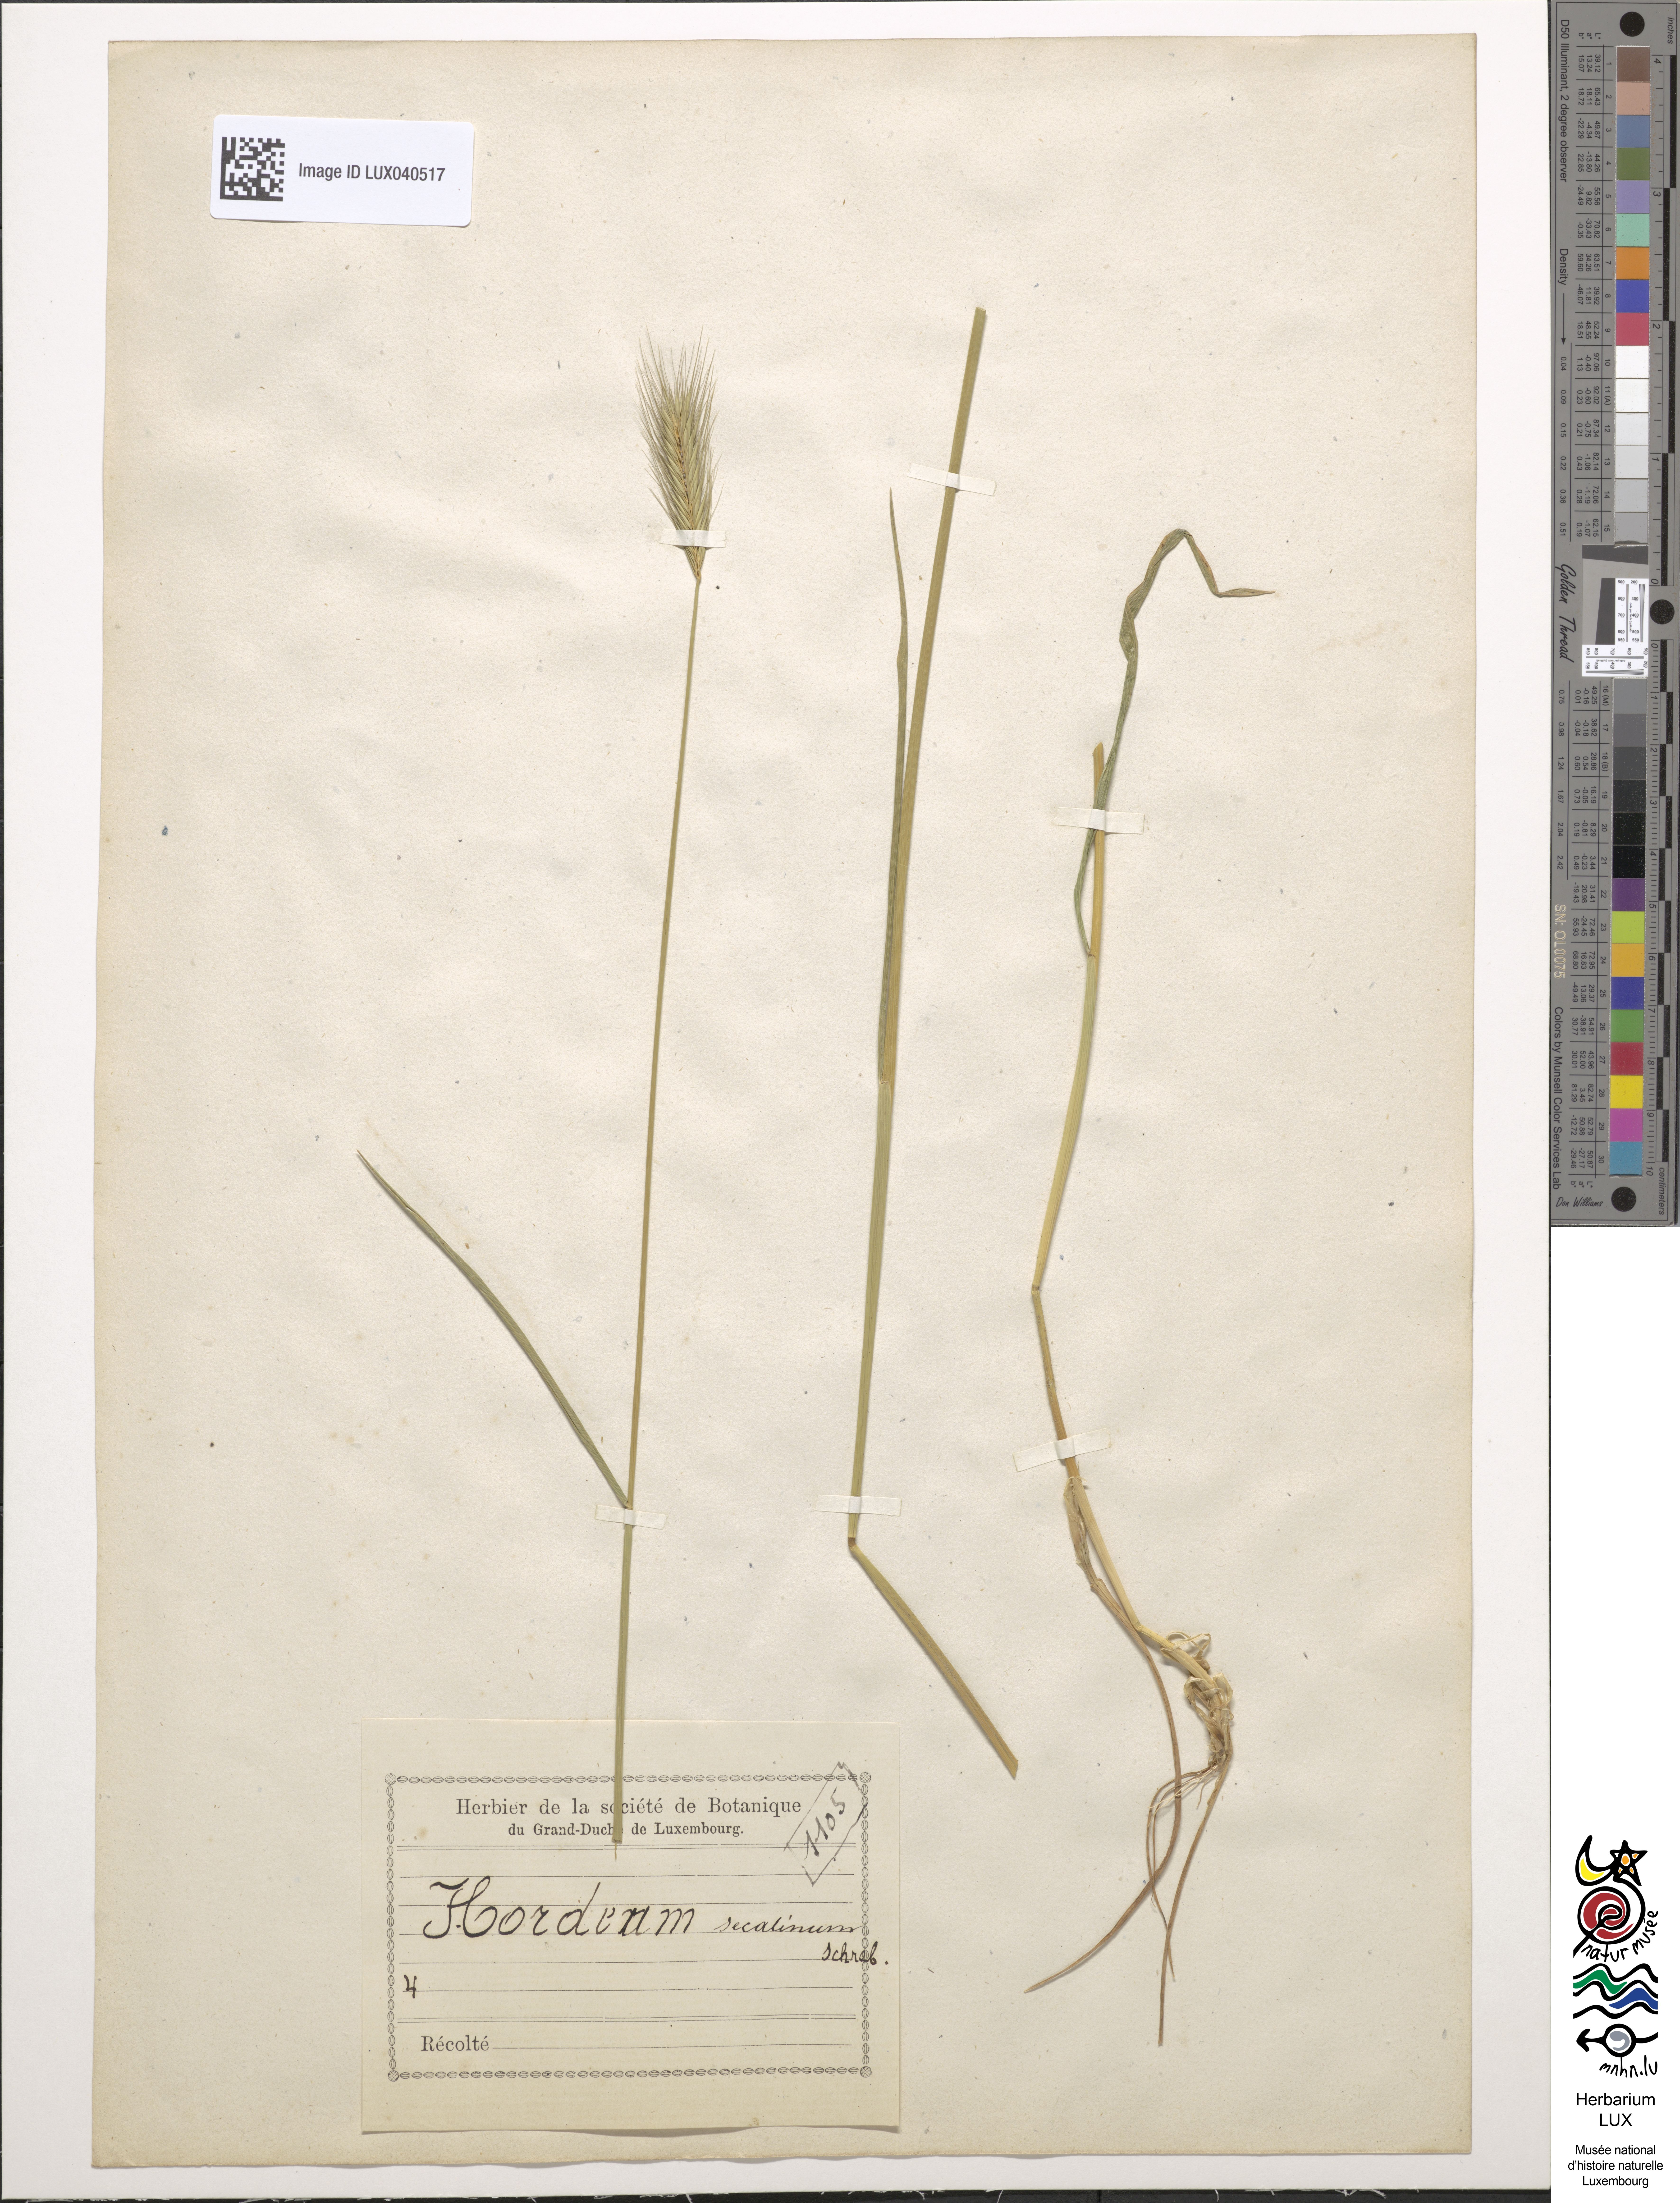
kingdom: Plantae
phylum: Tracheophyta
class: Liliopsida
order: Poales
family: Poaceae
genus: Hordeum
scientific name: Hordeum secalinum
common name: Meadow barley
